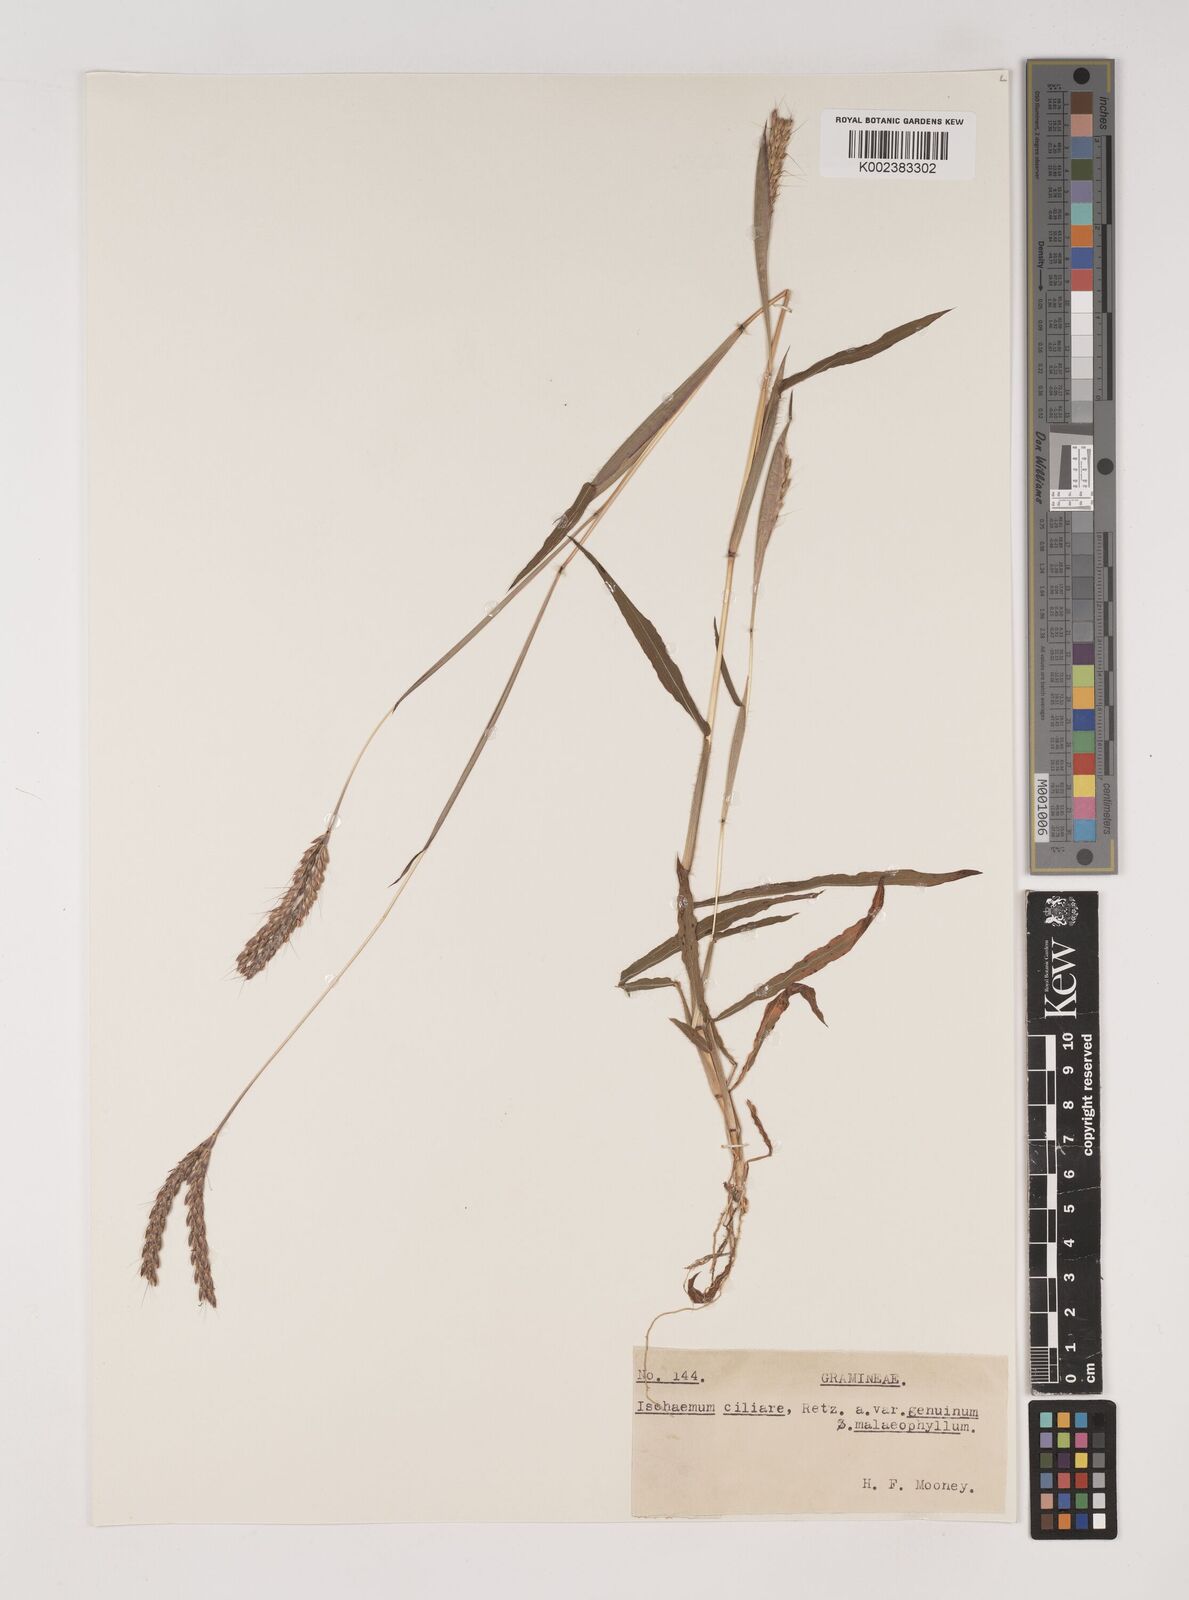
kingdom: Plantae
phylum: Tracheophyta
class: Liliopsida
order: Poales
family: Poaceae
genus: Polytrias
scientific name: Polytrias indica
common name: Indian murainagrass
